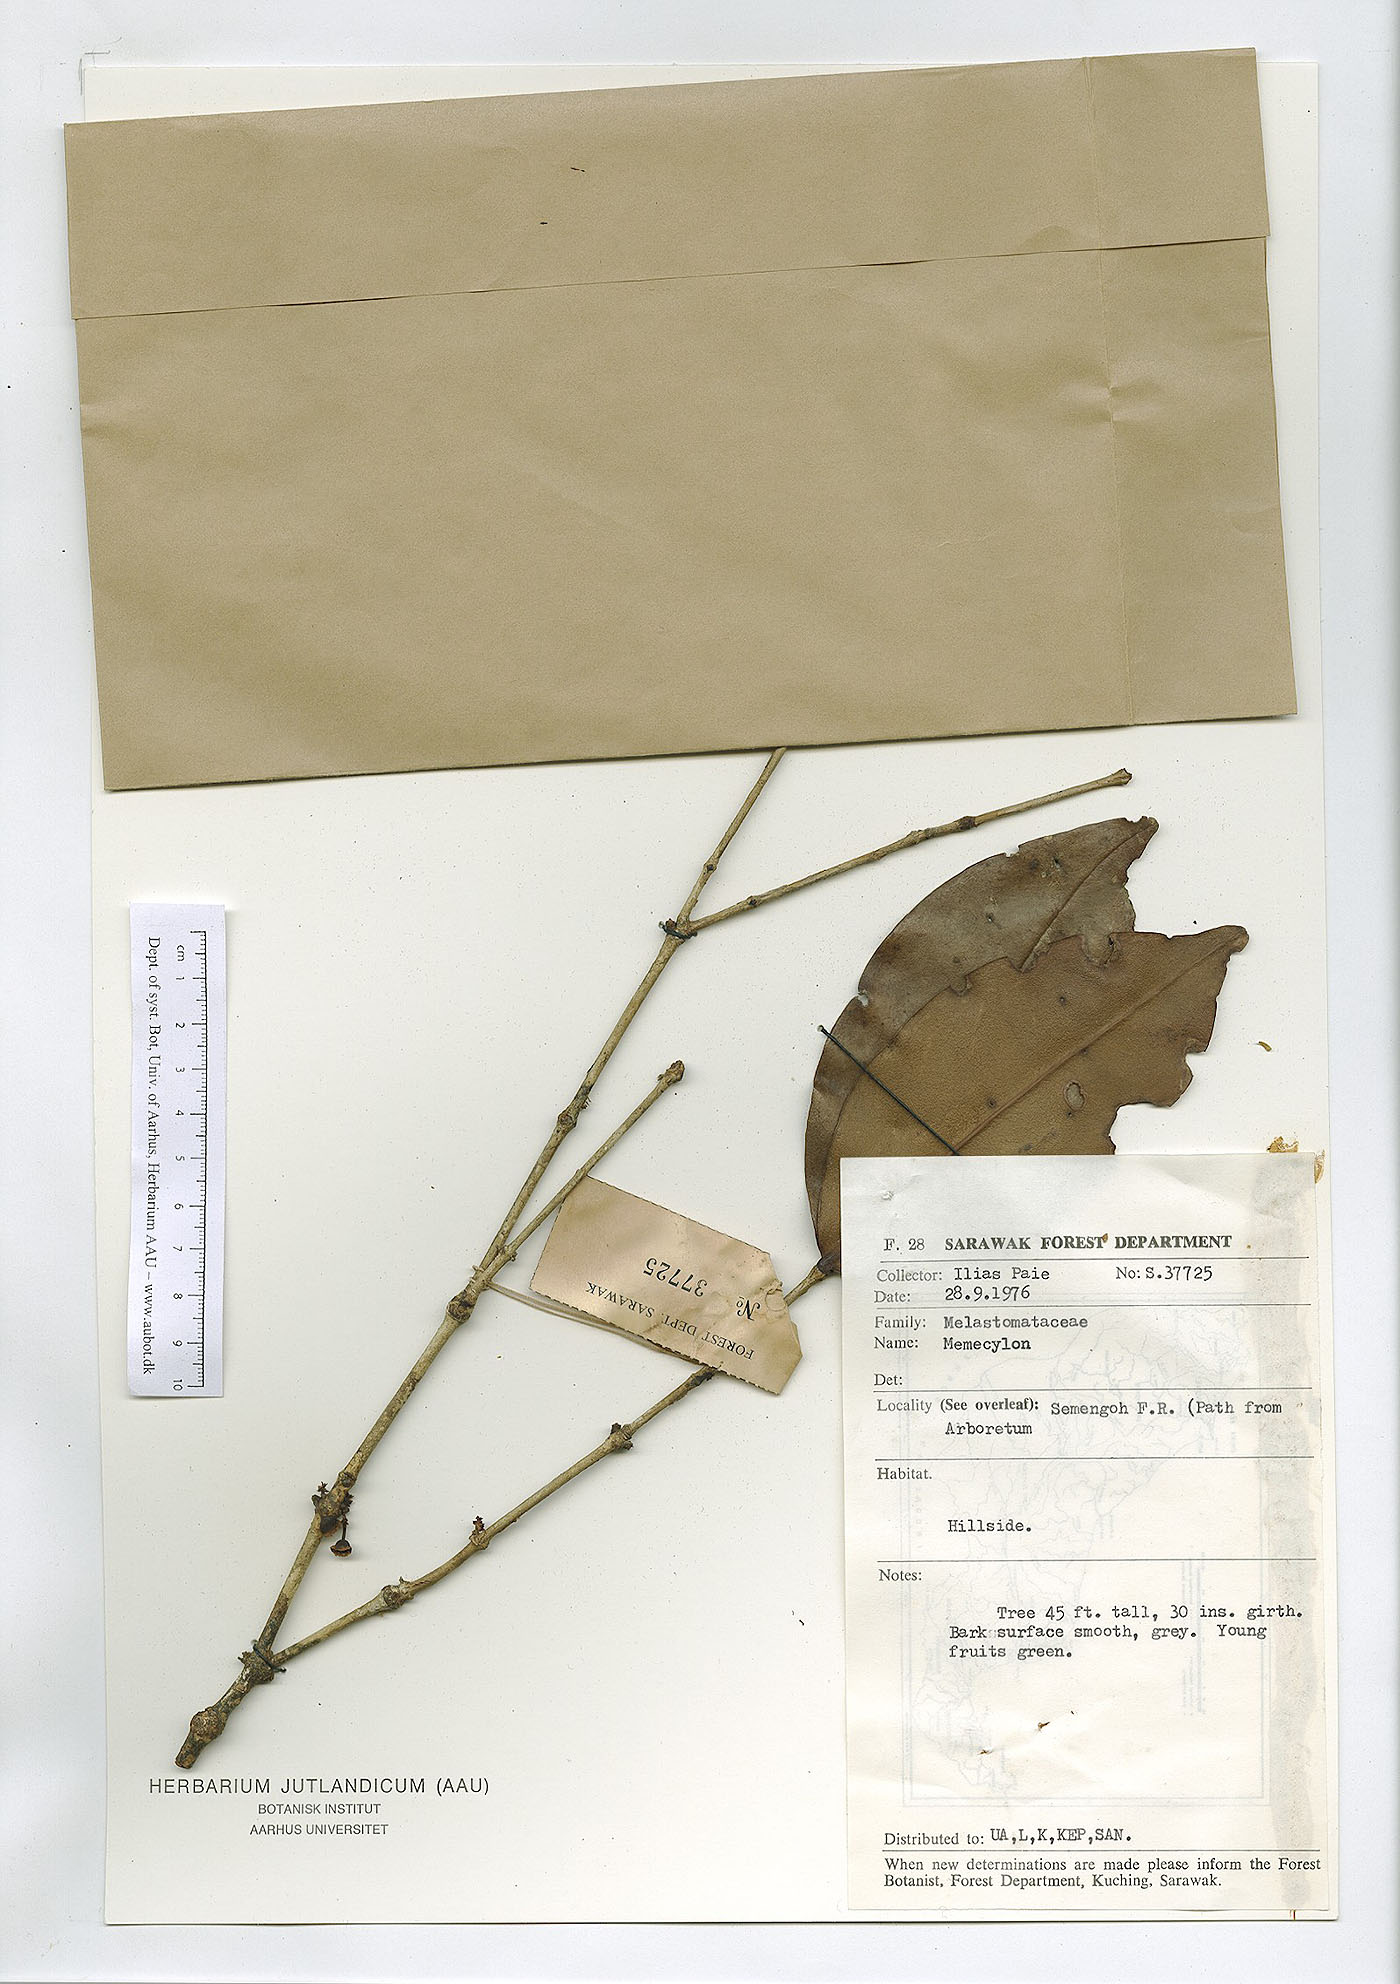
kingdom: Plantae
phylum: Tracheophyta
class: Magnoliopsida
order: Myrtales
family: Melastomataceae
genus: Memecylon
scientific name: Memecylon
